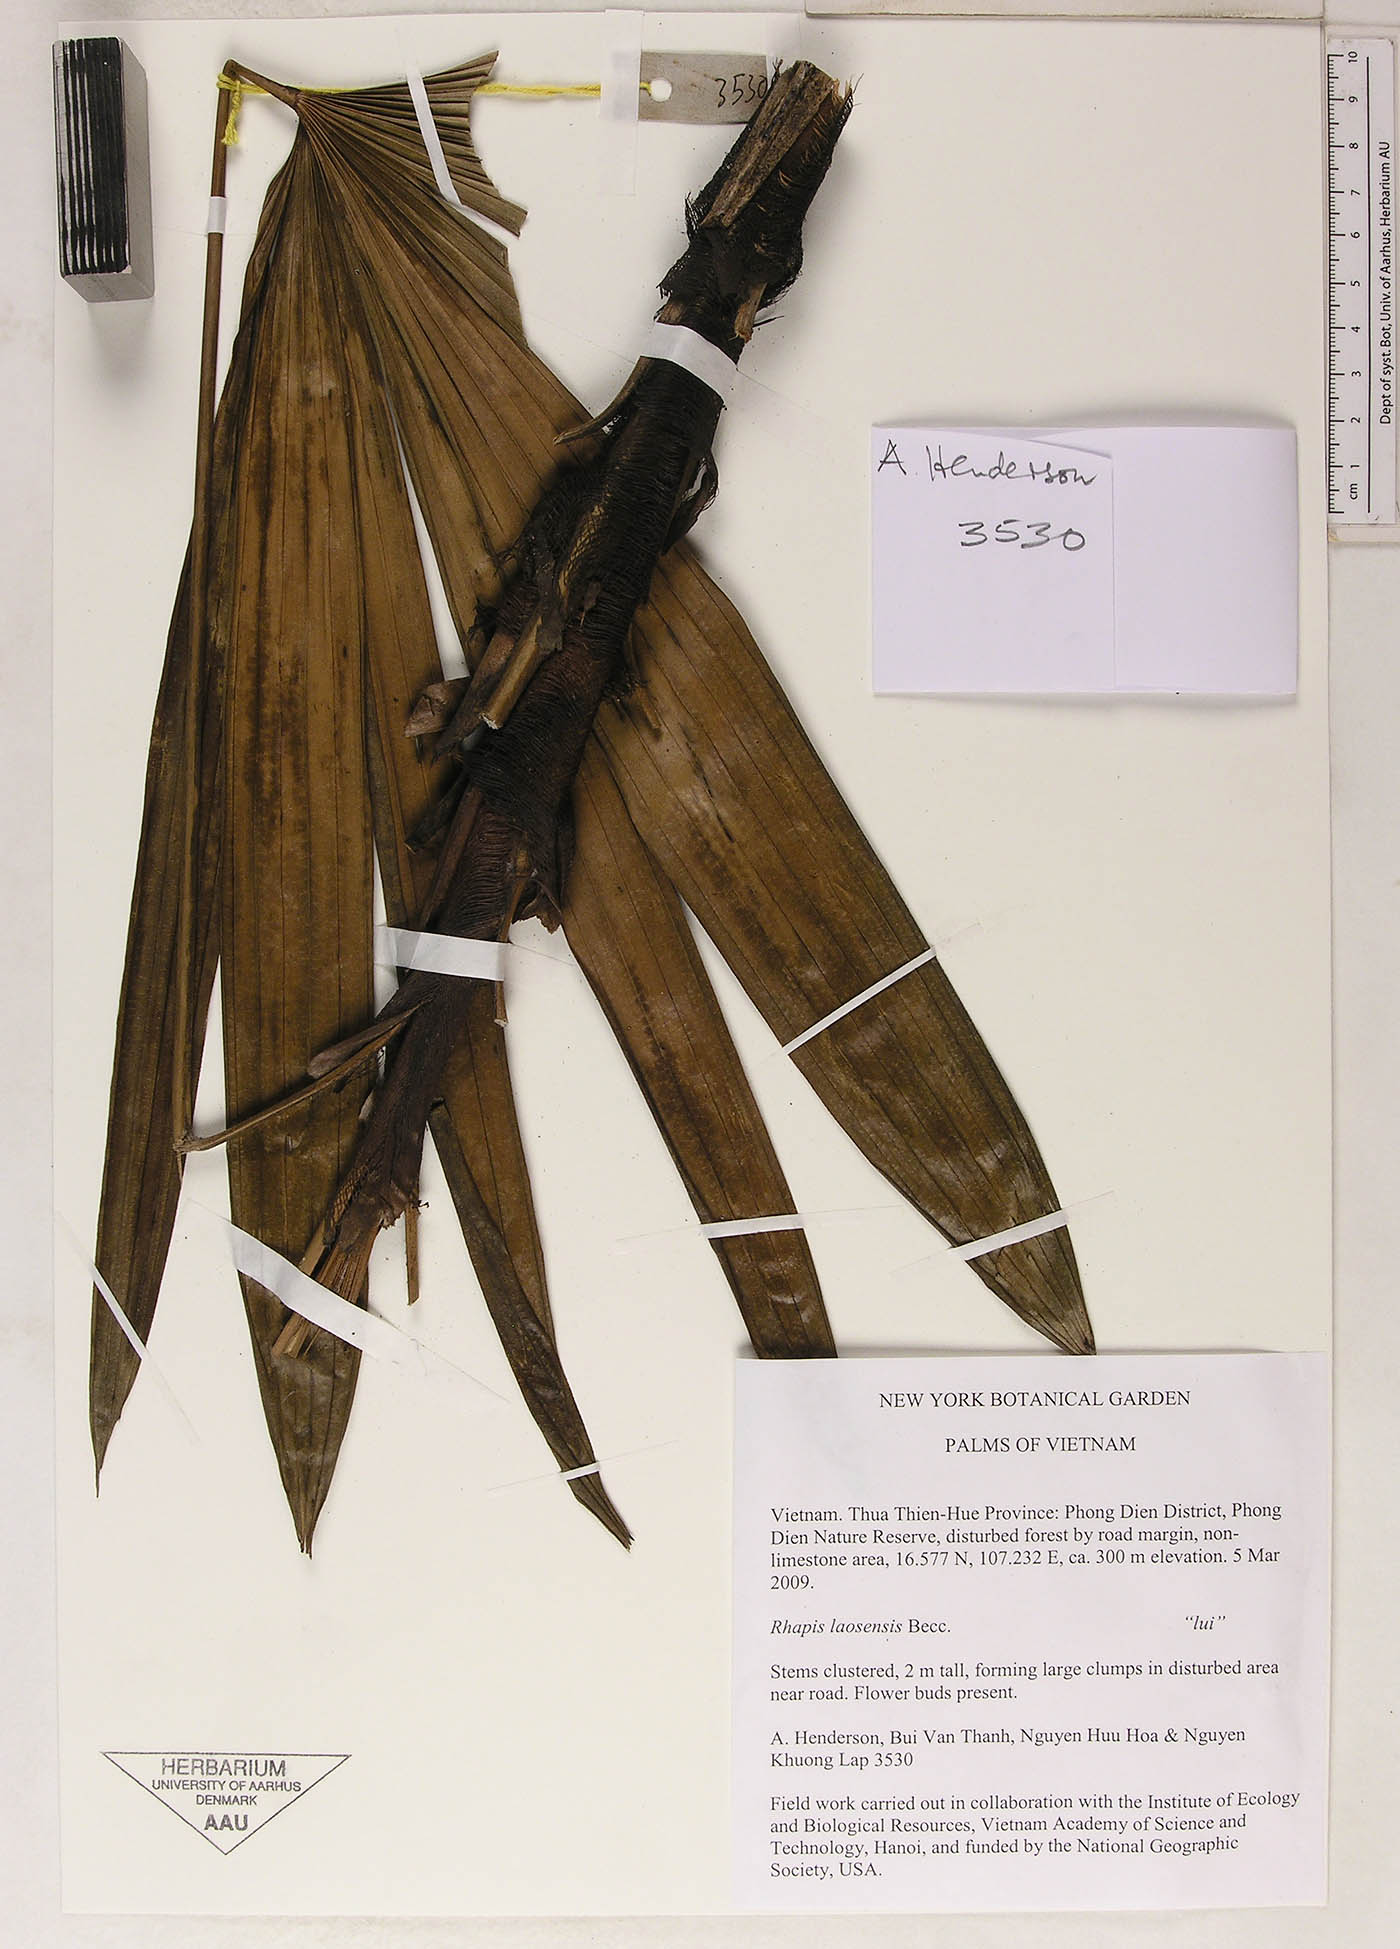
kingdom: Plantae
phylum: Tracheophyta
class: Liliopsida
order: Arecales
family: Arecaceae
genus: Rhapis
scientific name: Rhapis laosensis
